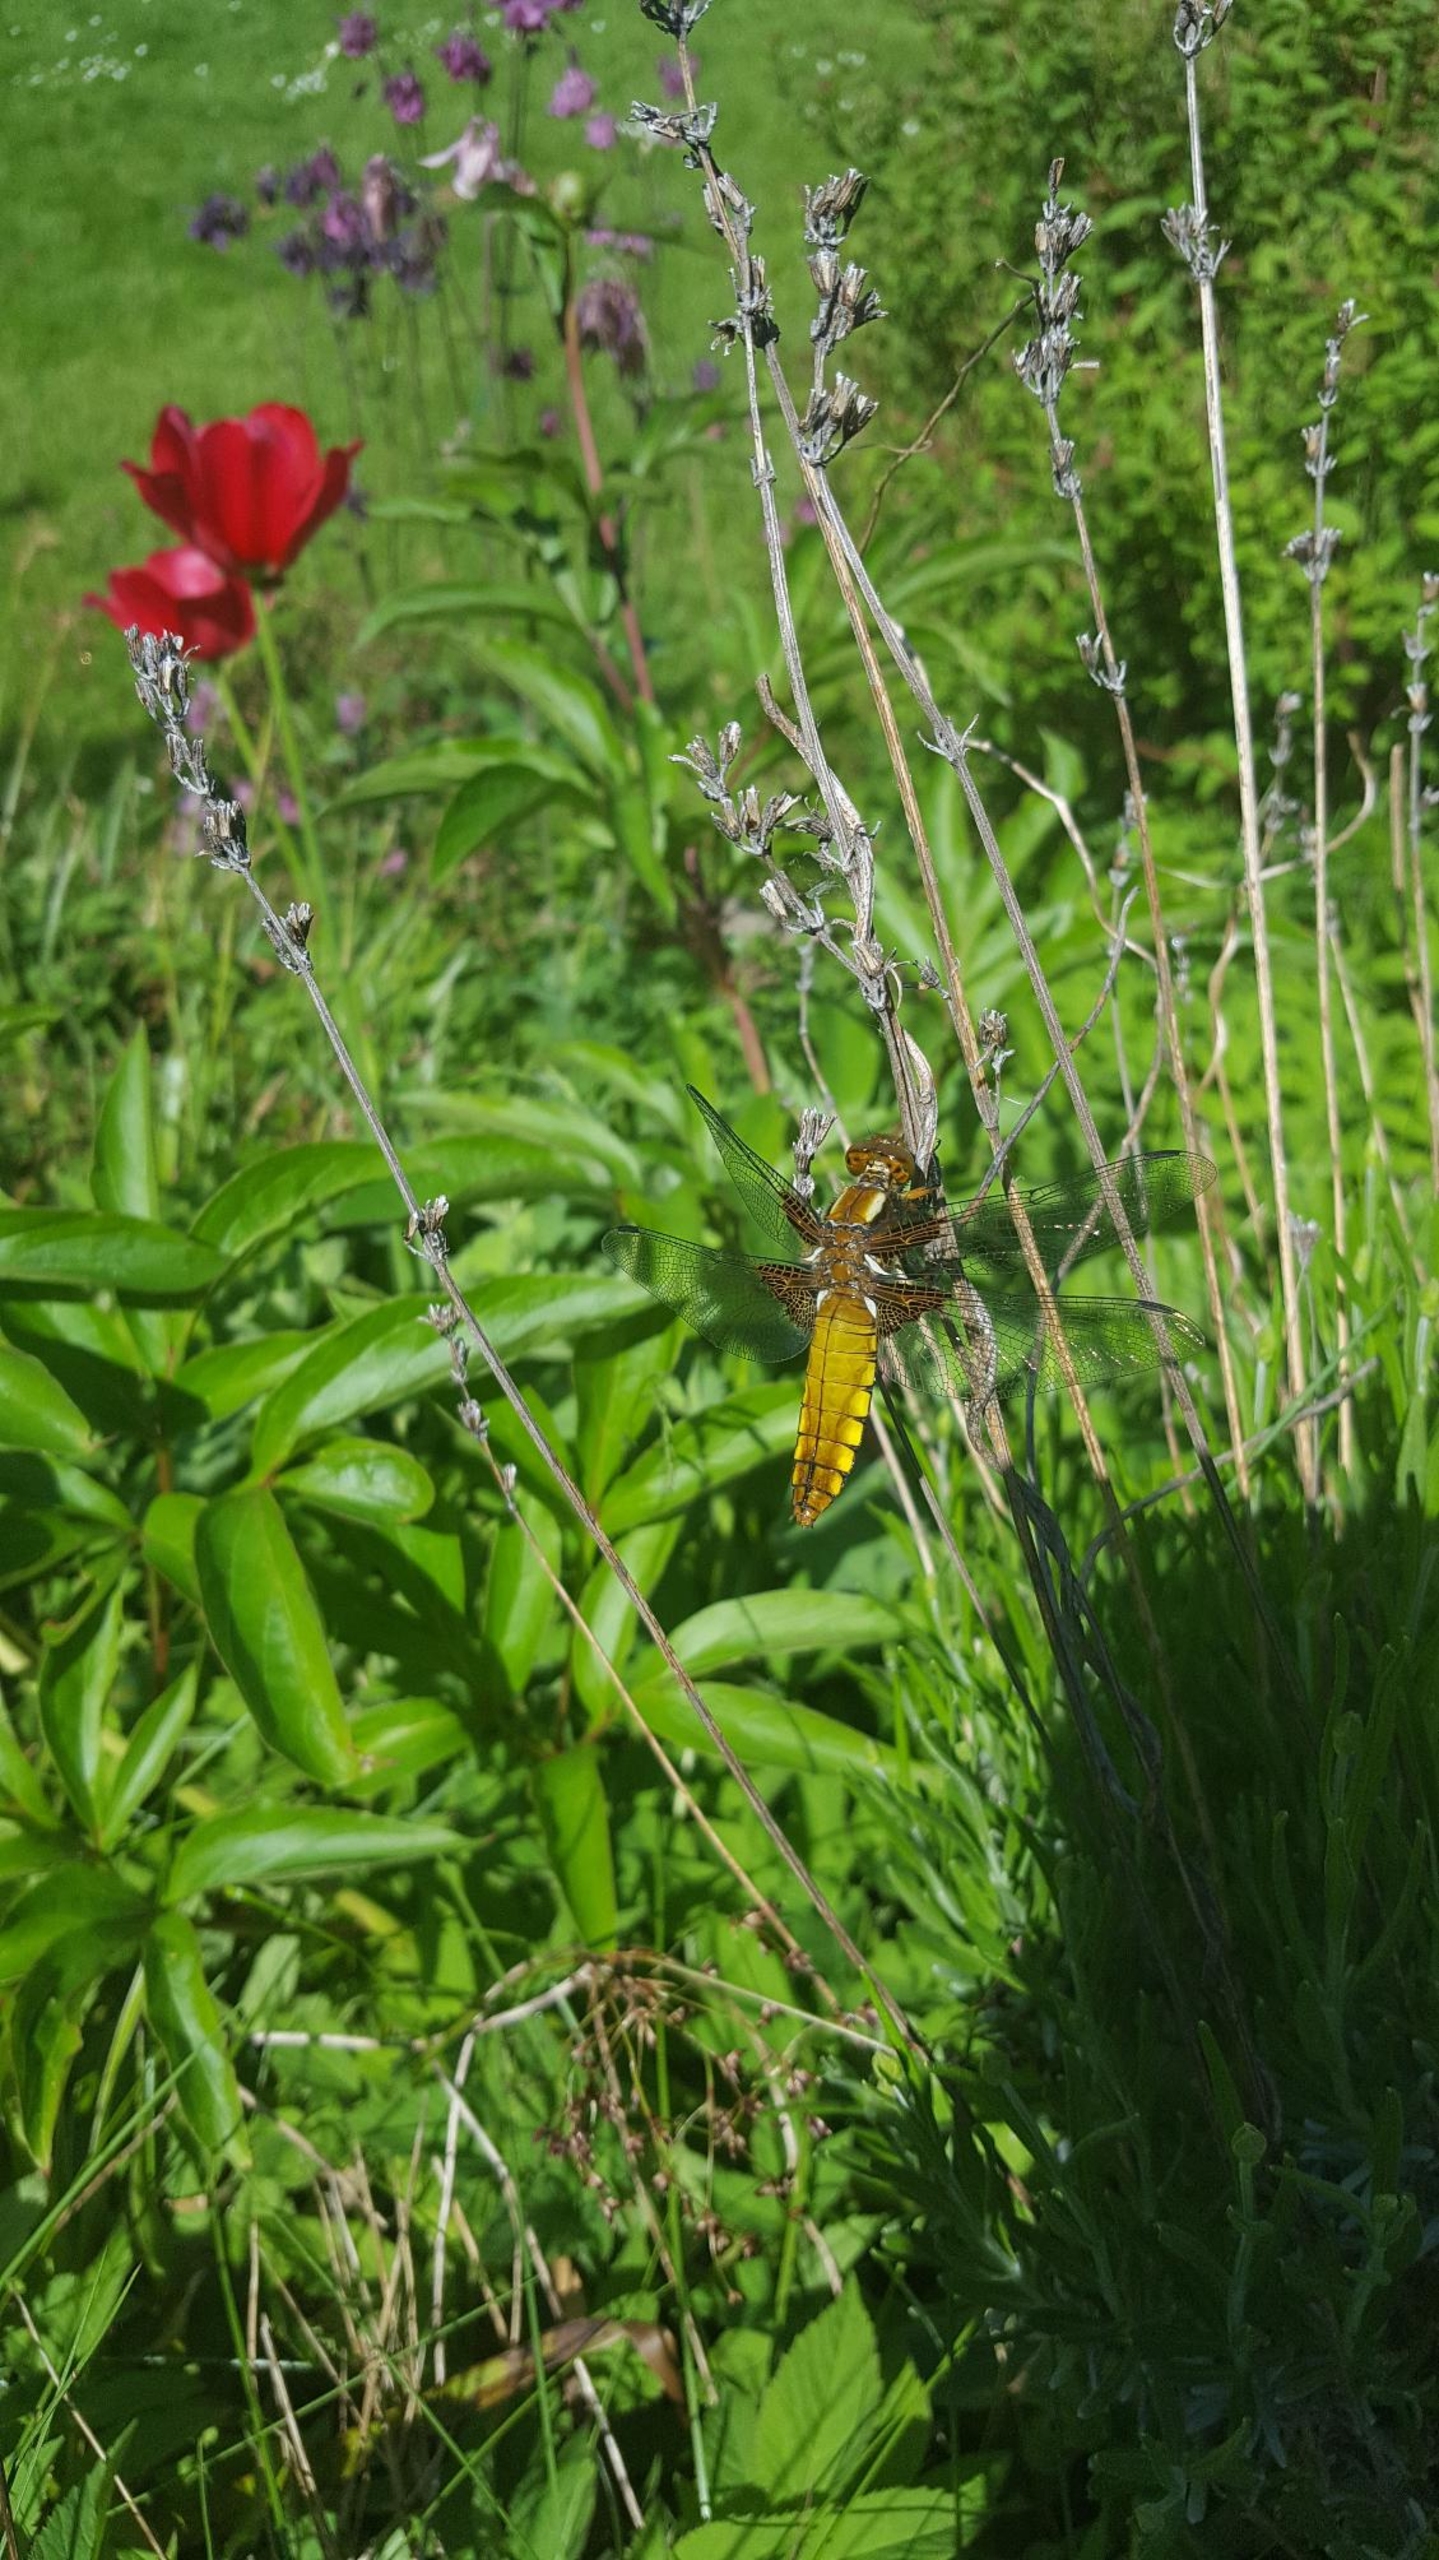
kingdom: Animalia
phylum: Arthropoda
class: Insecta
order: Odonata
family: Libellulidae
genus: Libellula
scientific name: Libellula depressa
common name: Blå libel
